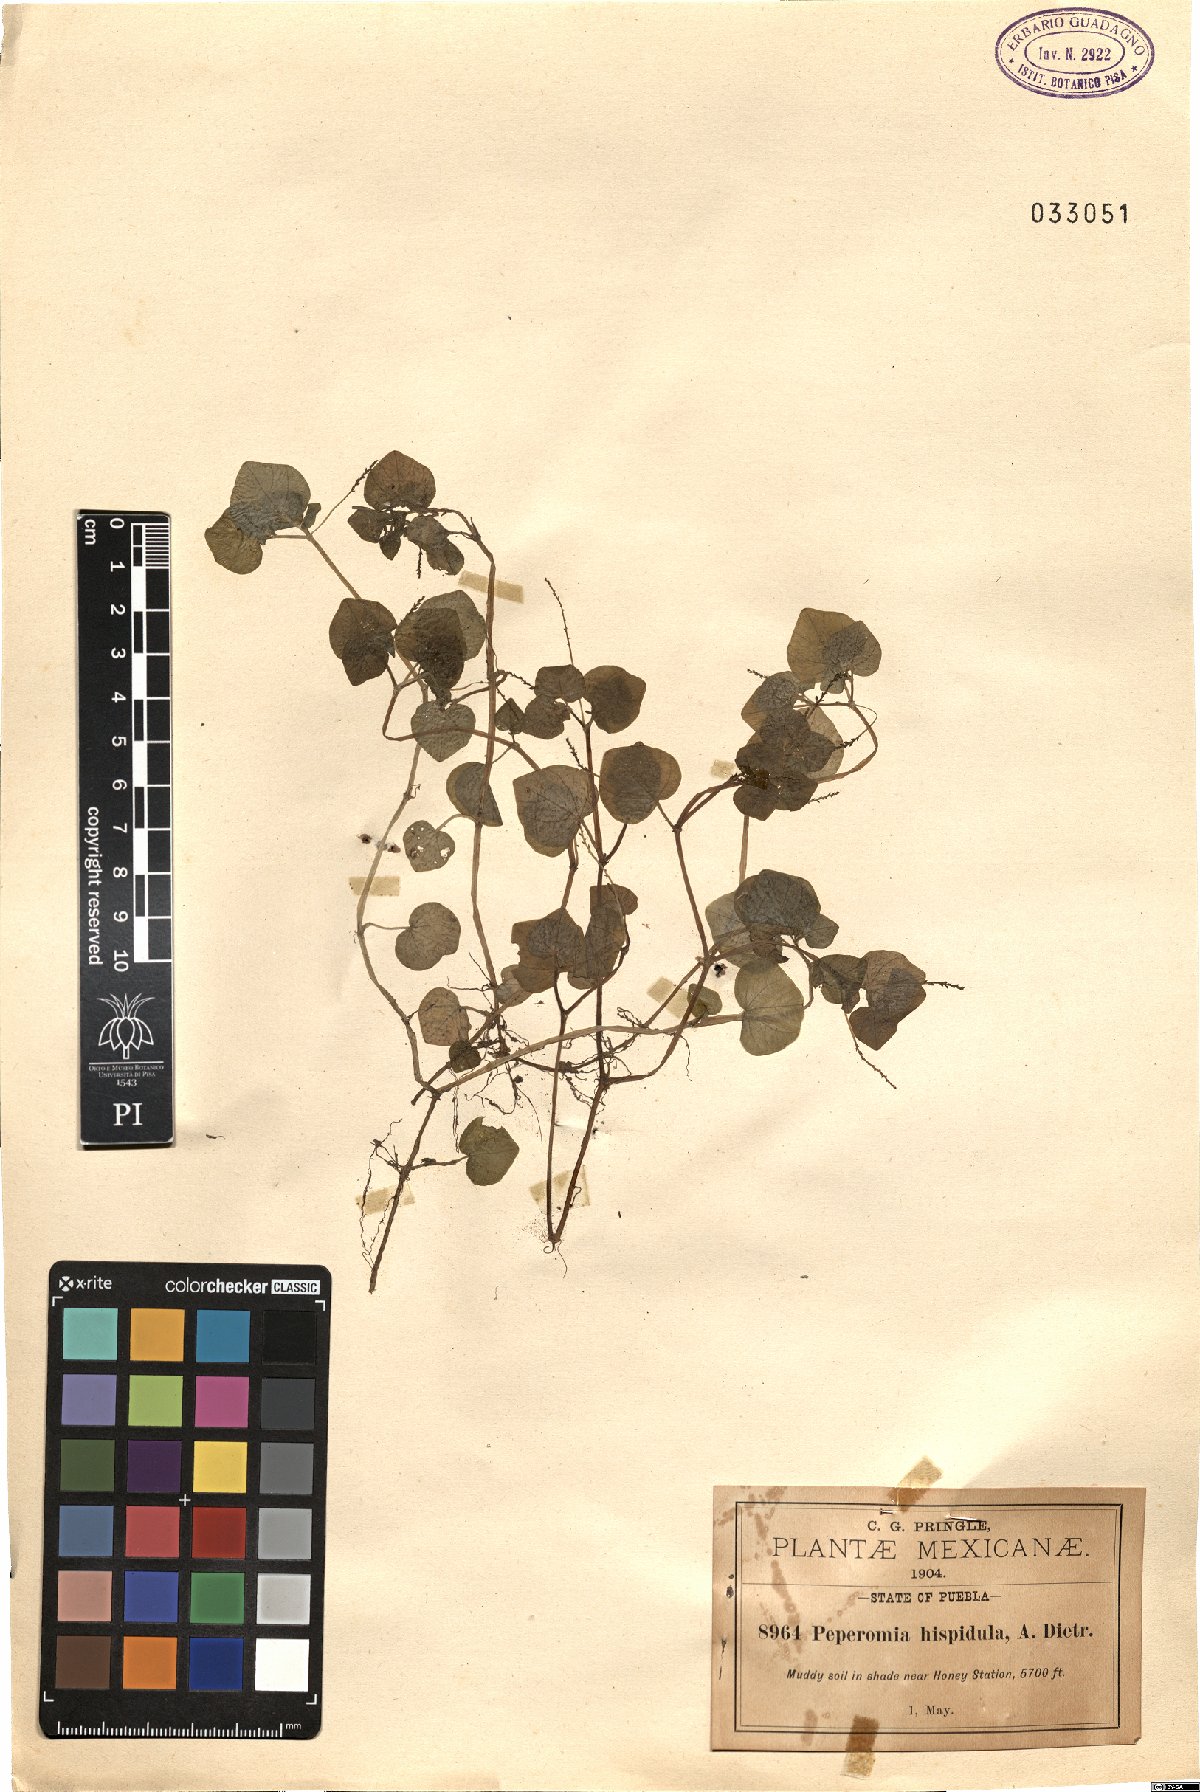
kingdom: Plantae
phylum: Tracheophyta
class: Magnoliopsida
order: Piperales
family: Piperaceae
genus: Peperomia
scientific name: Peperomia hispidula
